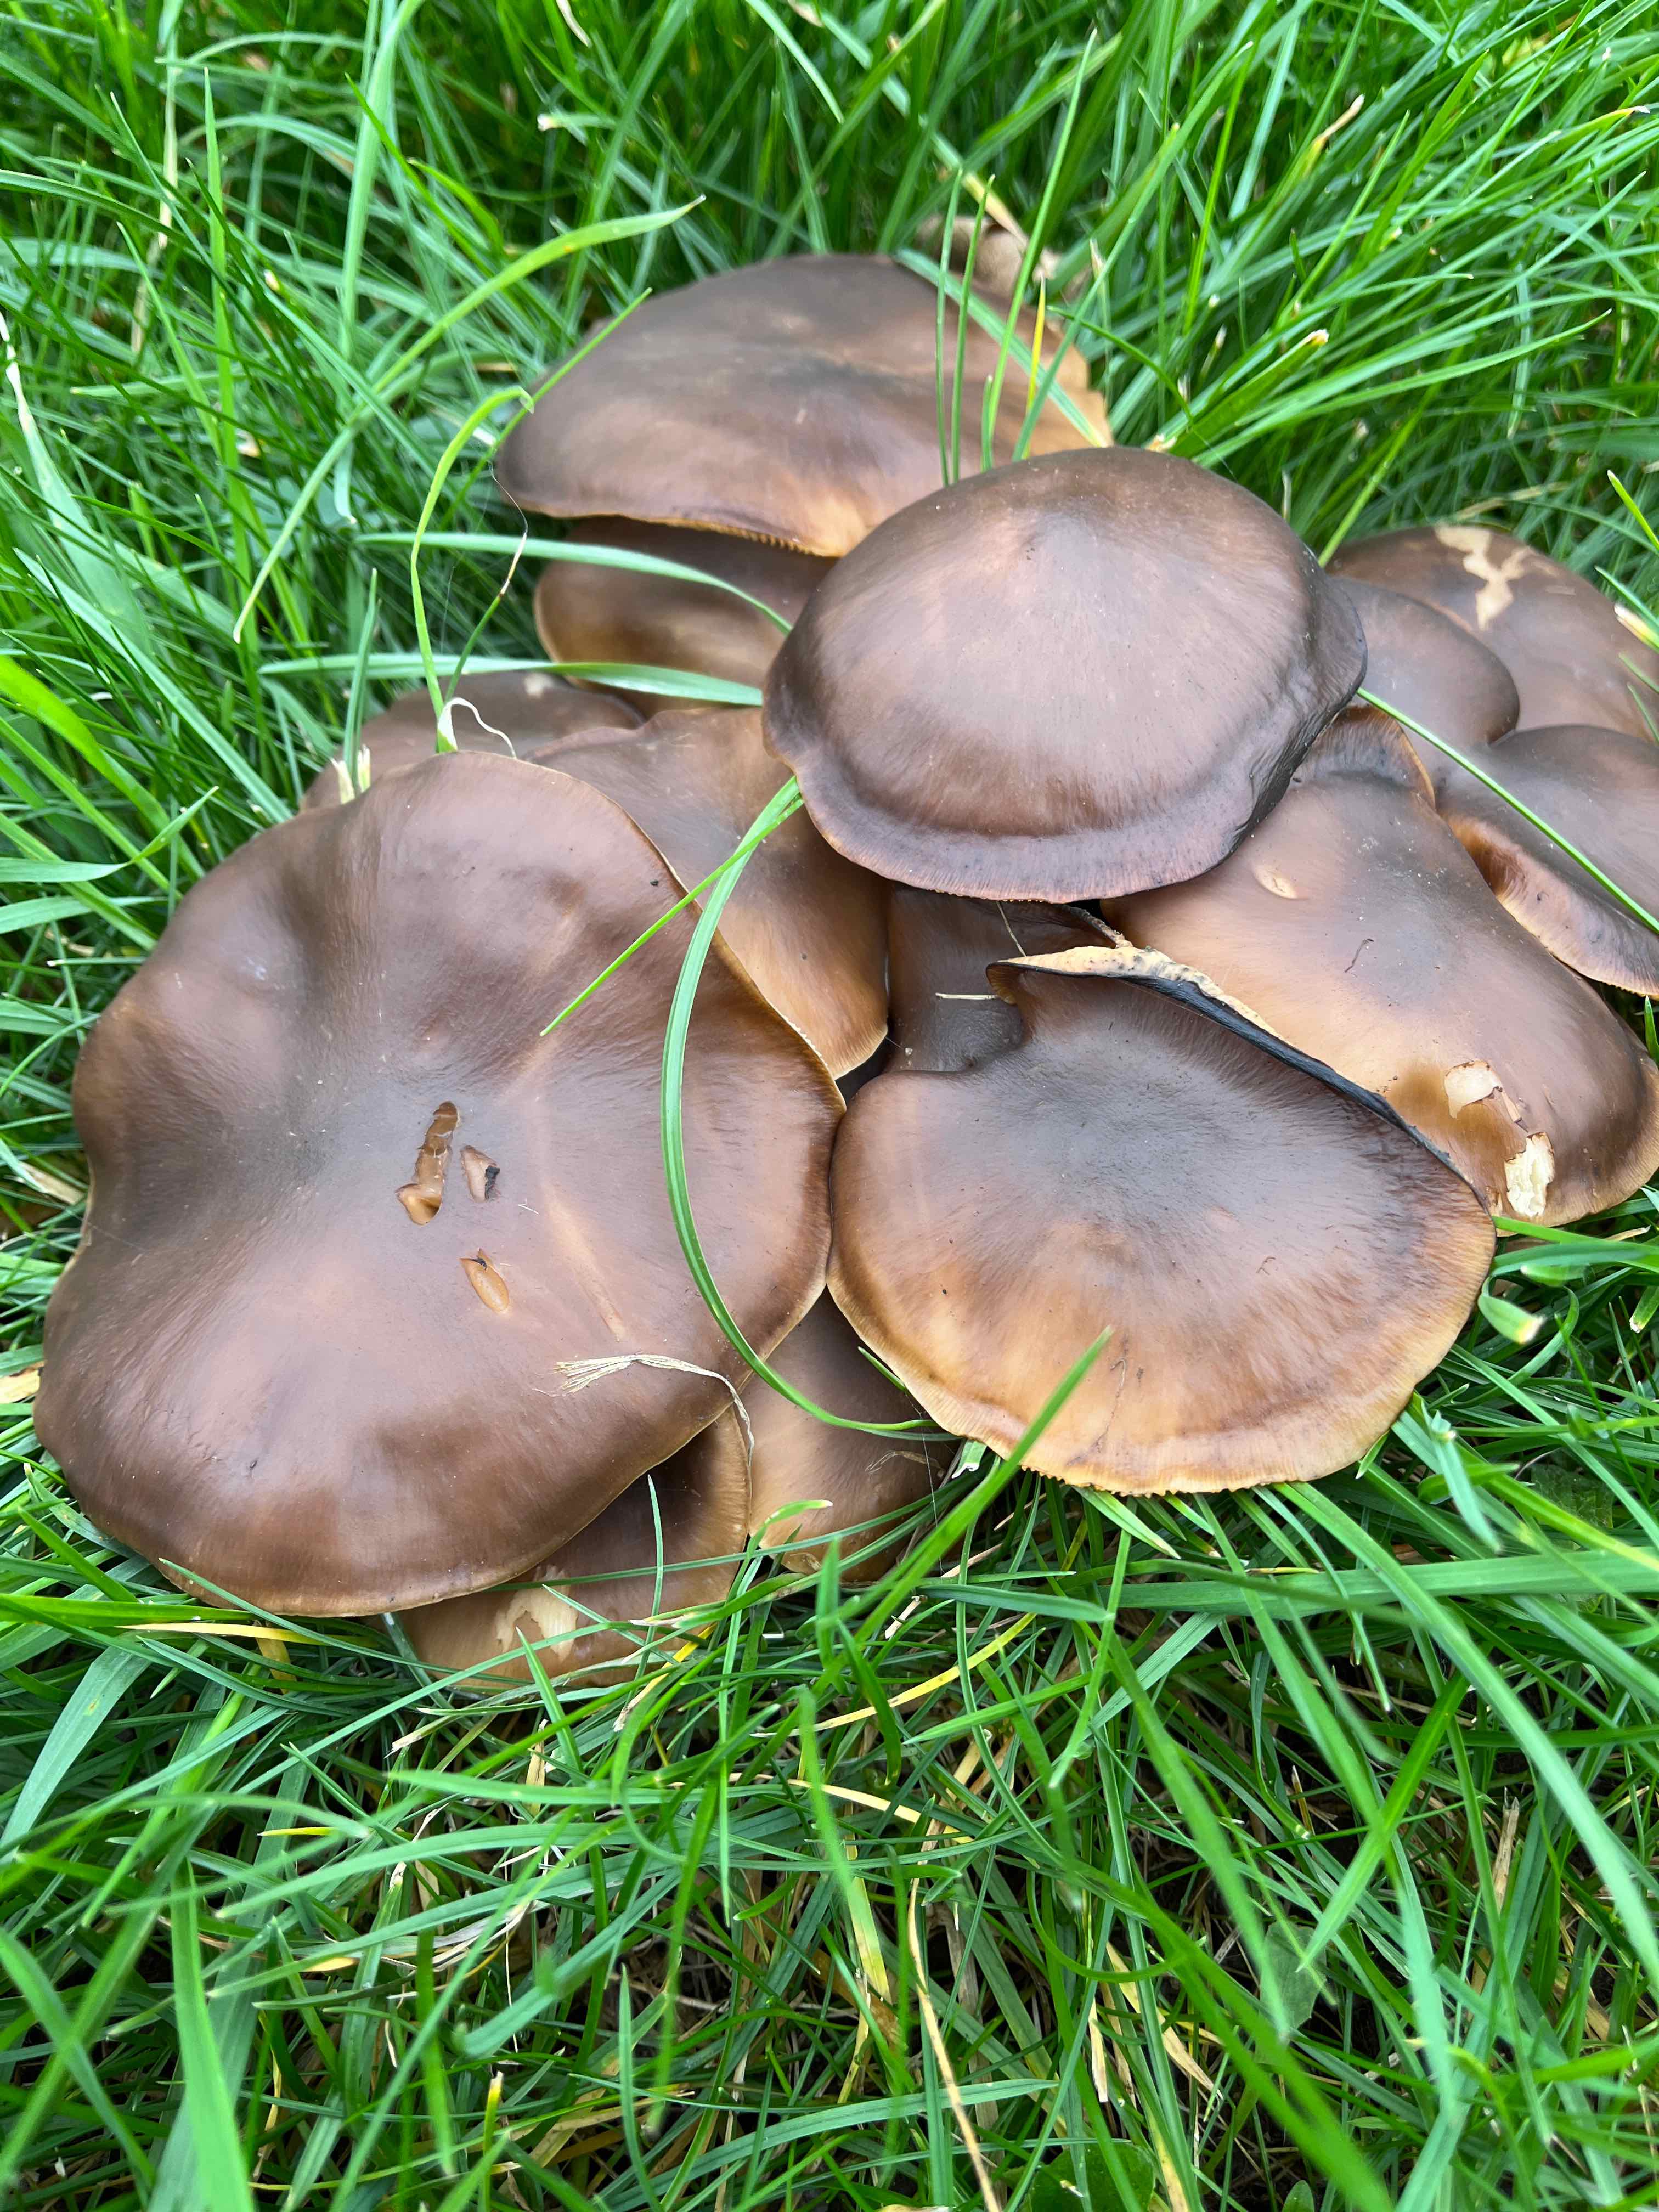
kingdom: Fungi
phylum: Basidiomycota
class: Agaricomycetes
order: Agaricales
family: Lyophyllaceae
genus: Lyophyllum
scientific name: Lyophyllum decastes
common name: røggrå gråblad
